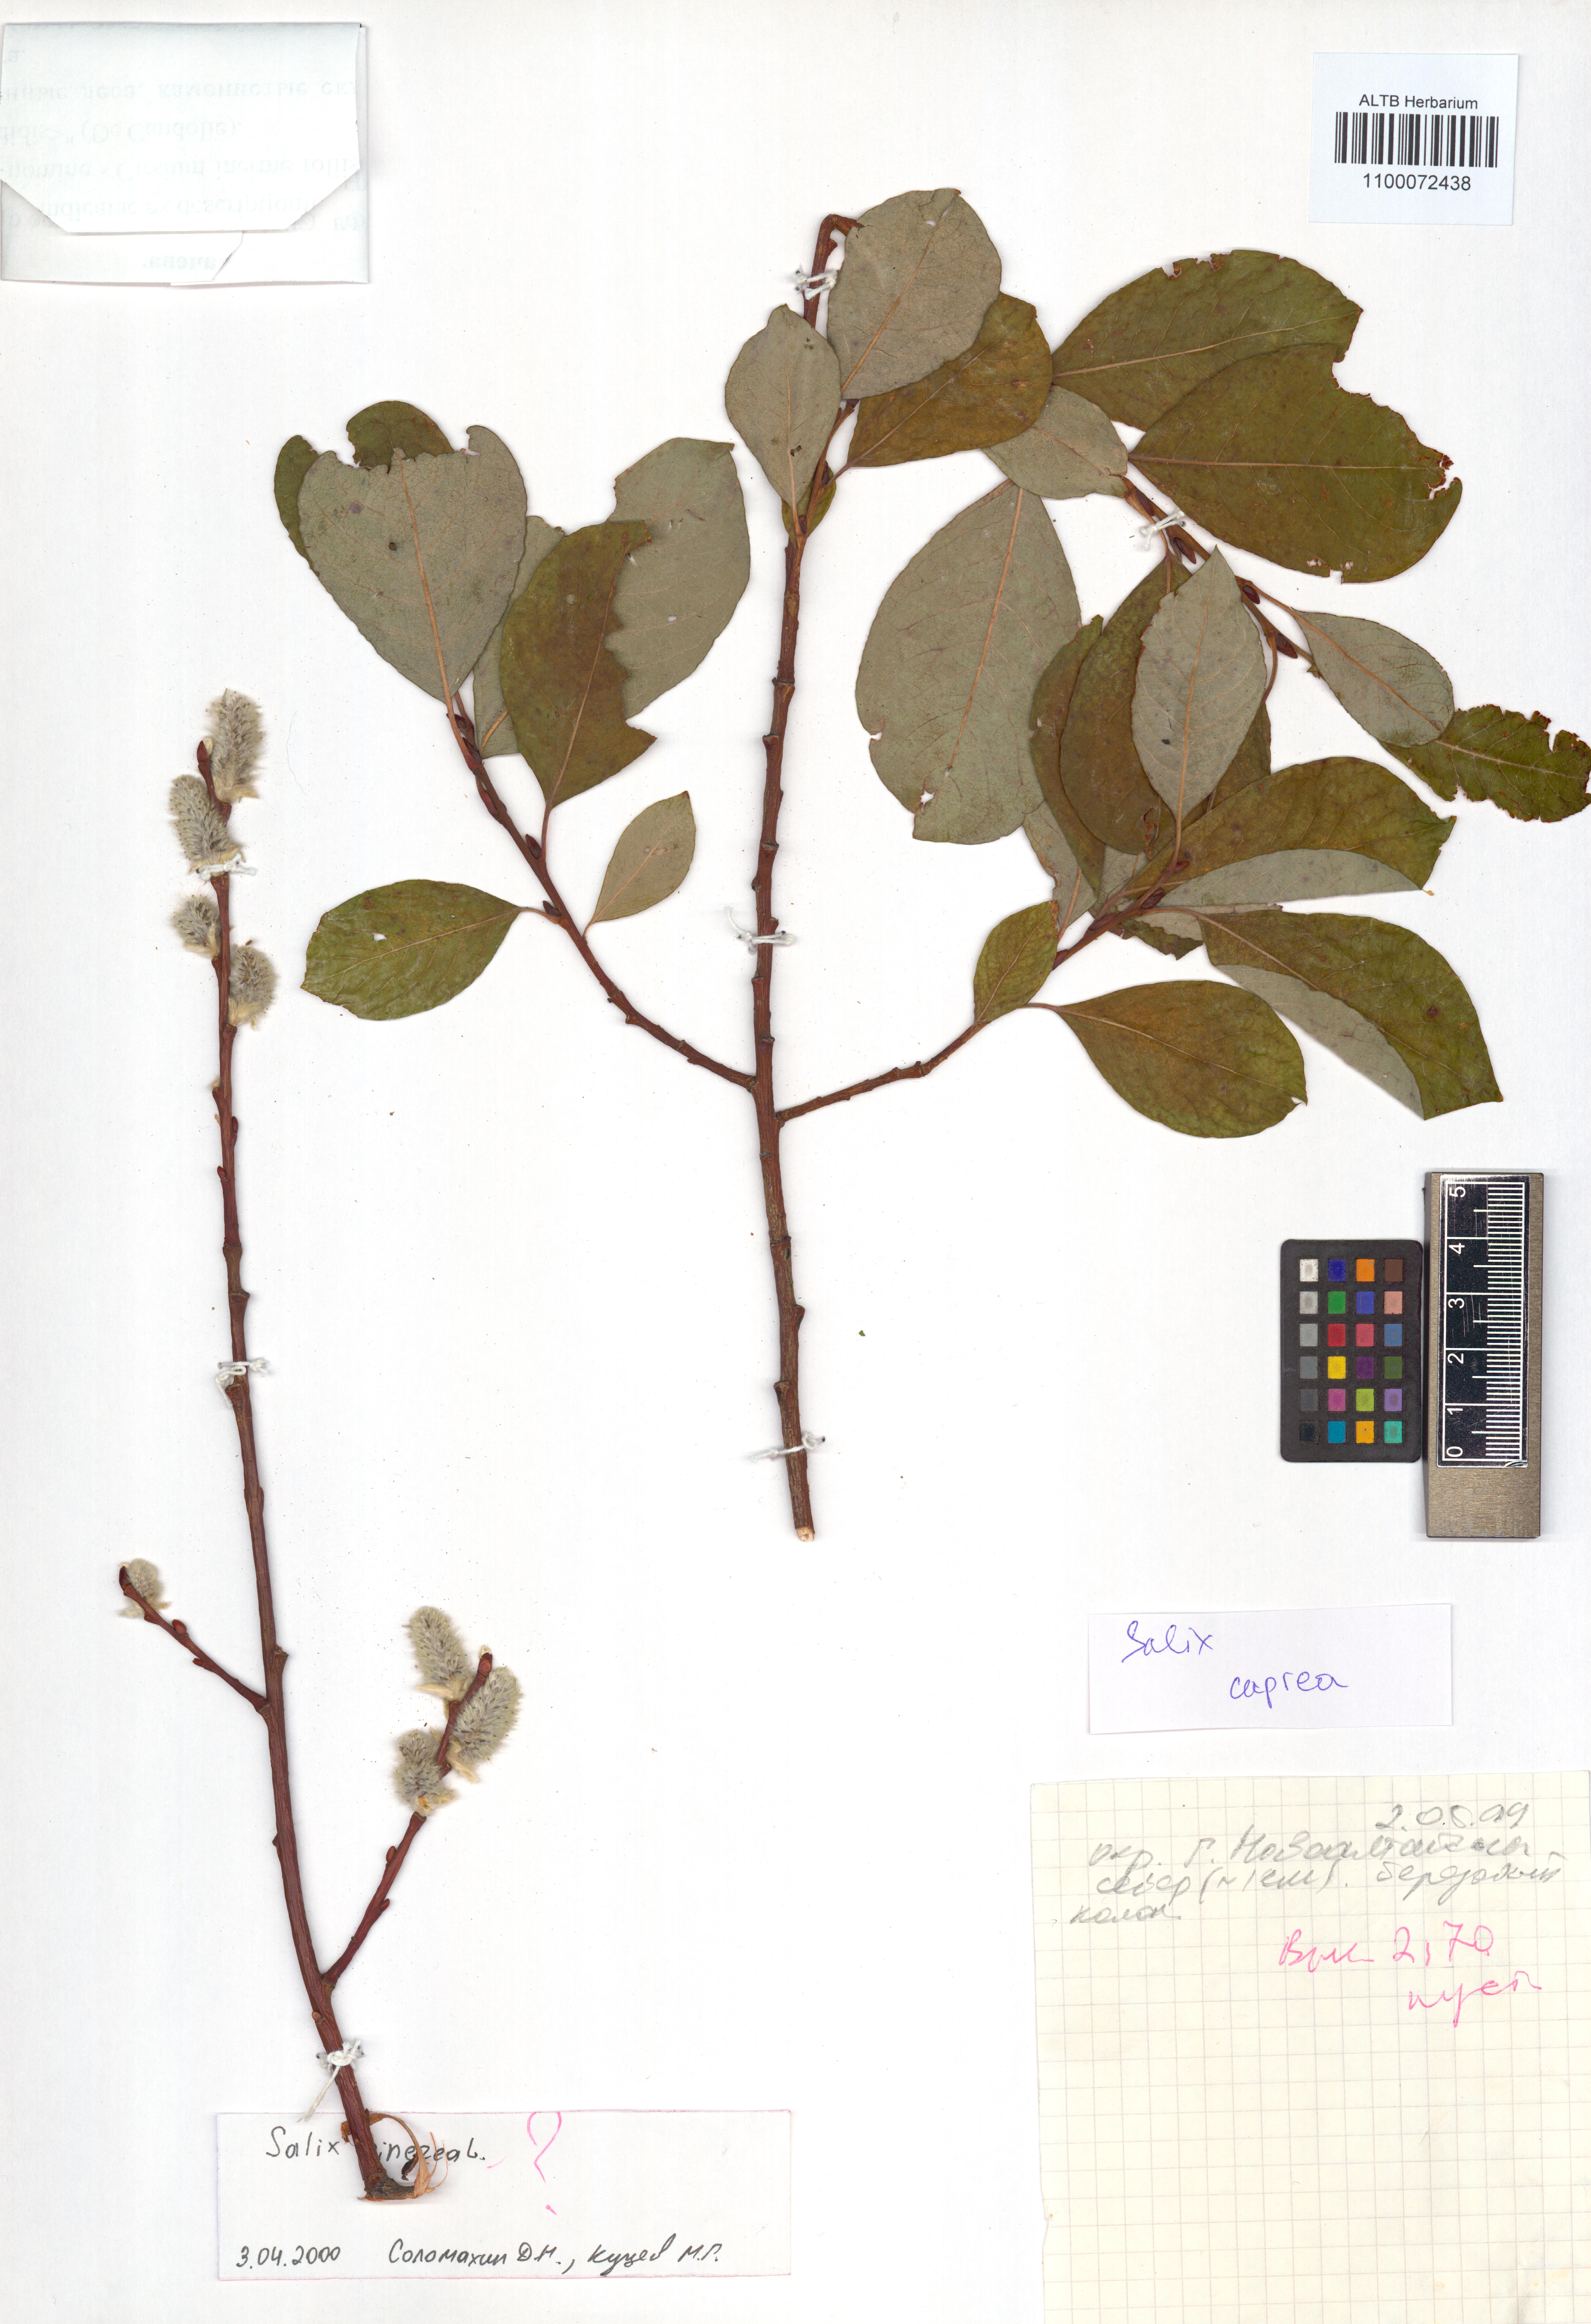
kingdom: Plantae
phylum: Tracheophyta
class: Magnoliopsida
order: Malpighiales
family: Salicaceae
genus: Salix
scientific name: Salix caprea
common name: Goat willow
